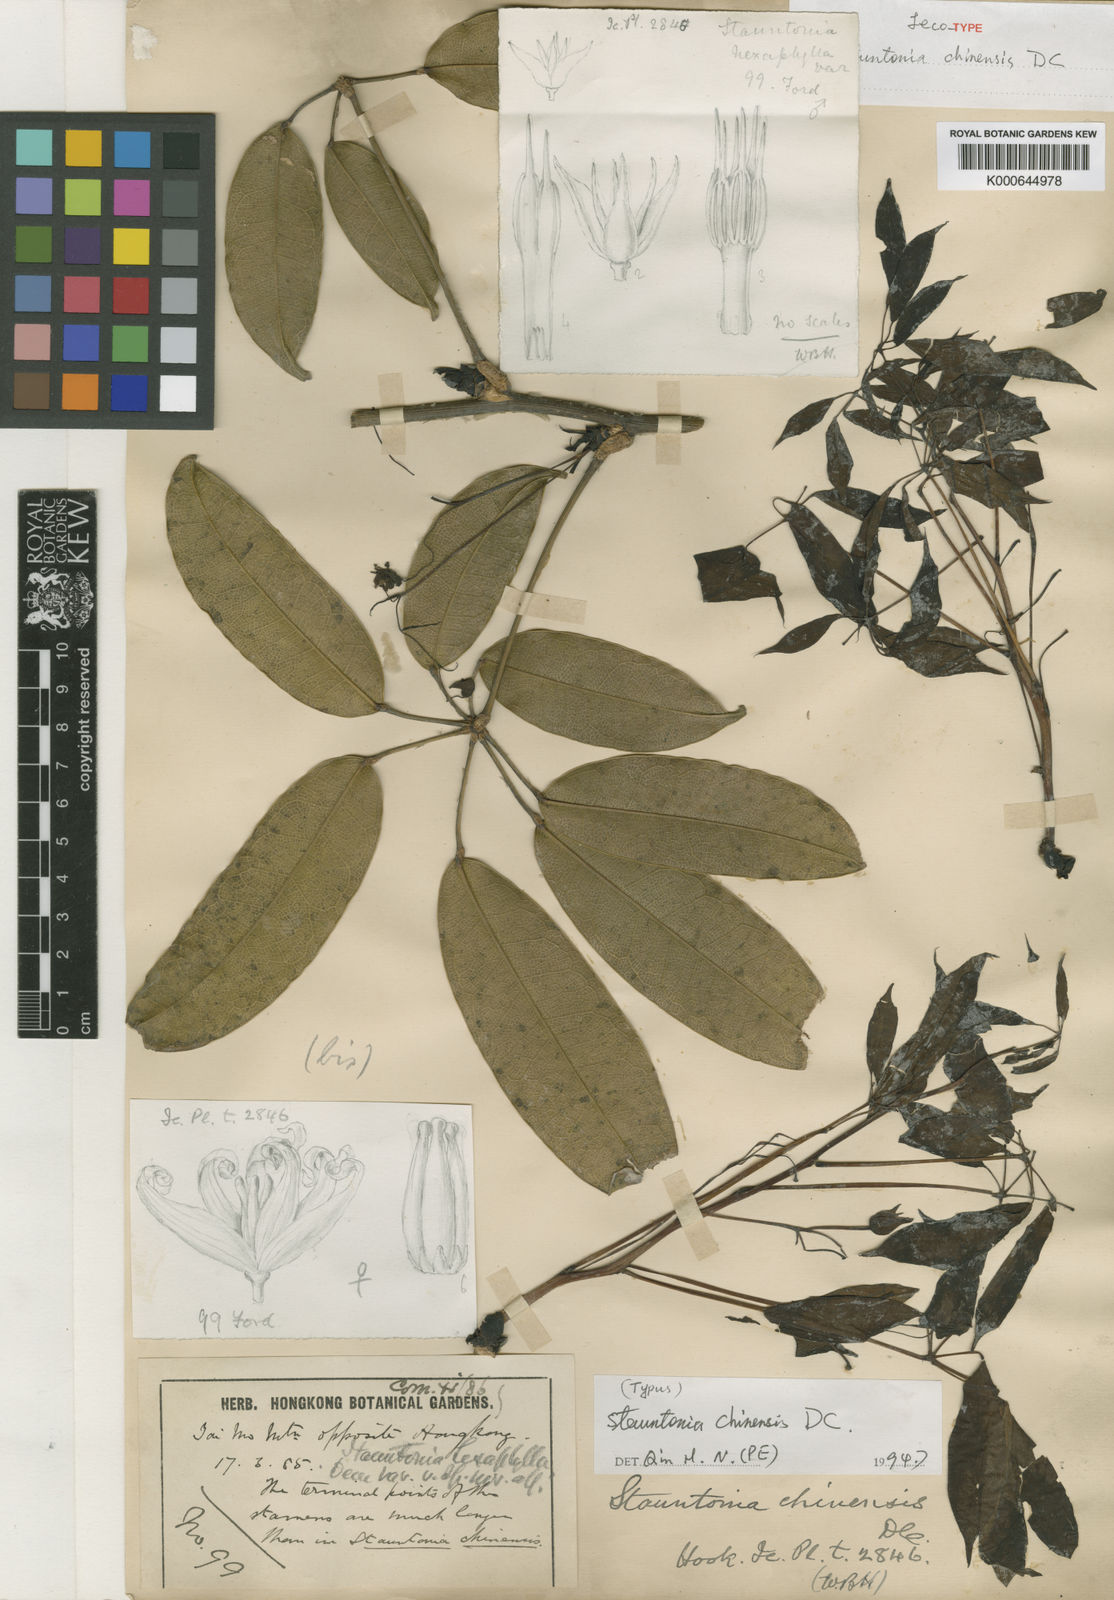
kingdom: Plantae
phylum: Tracheophyta
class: Magnoliopsida
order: Ranunculales
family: Lardizabalaceae
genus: Stauntonia
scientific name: Stauntonia chinensis
